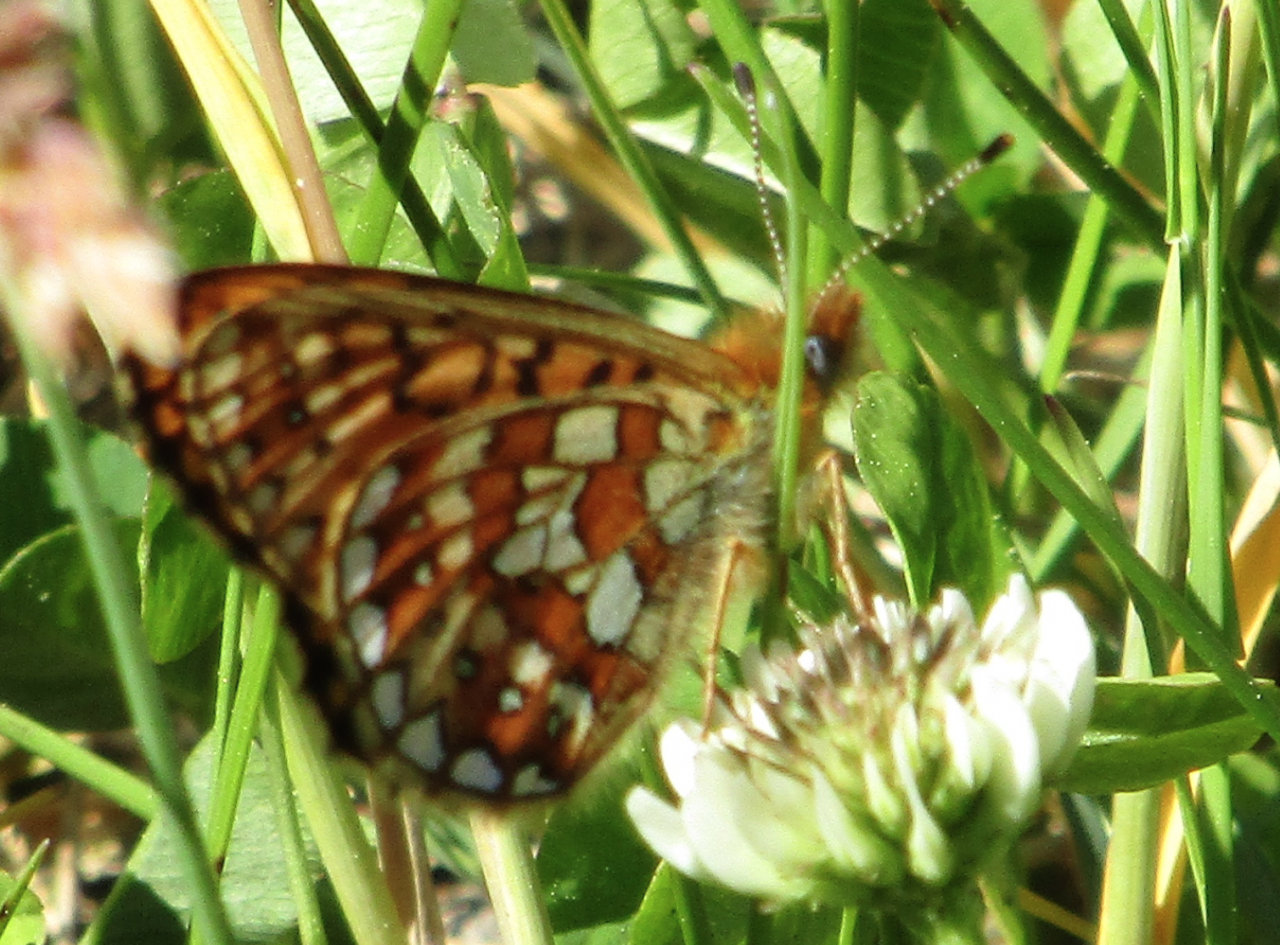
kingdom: Animalia
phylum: Arthropoda
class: Insecta
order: Lepidoptera
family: Nymphalidae
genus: Boloria
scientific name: Boloria eunomia
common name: Bog Fritillary
